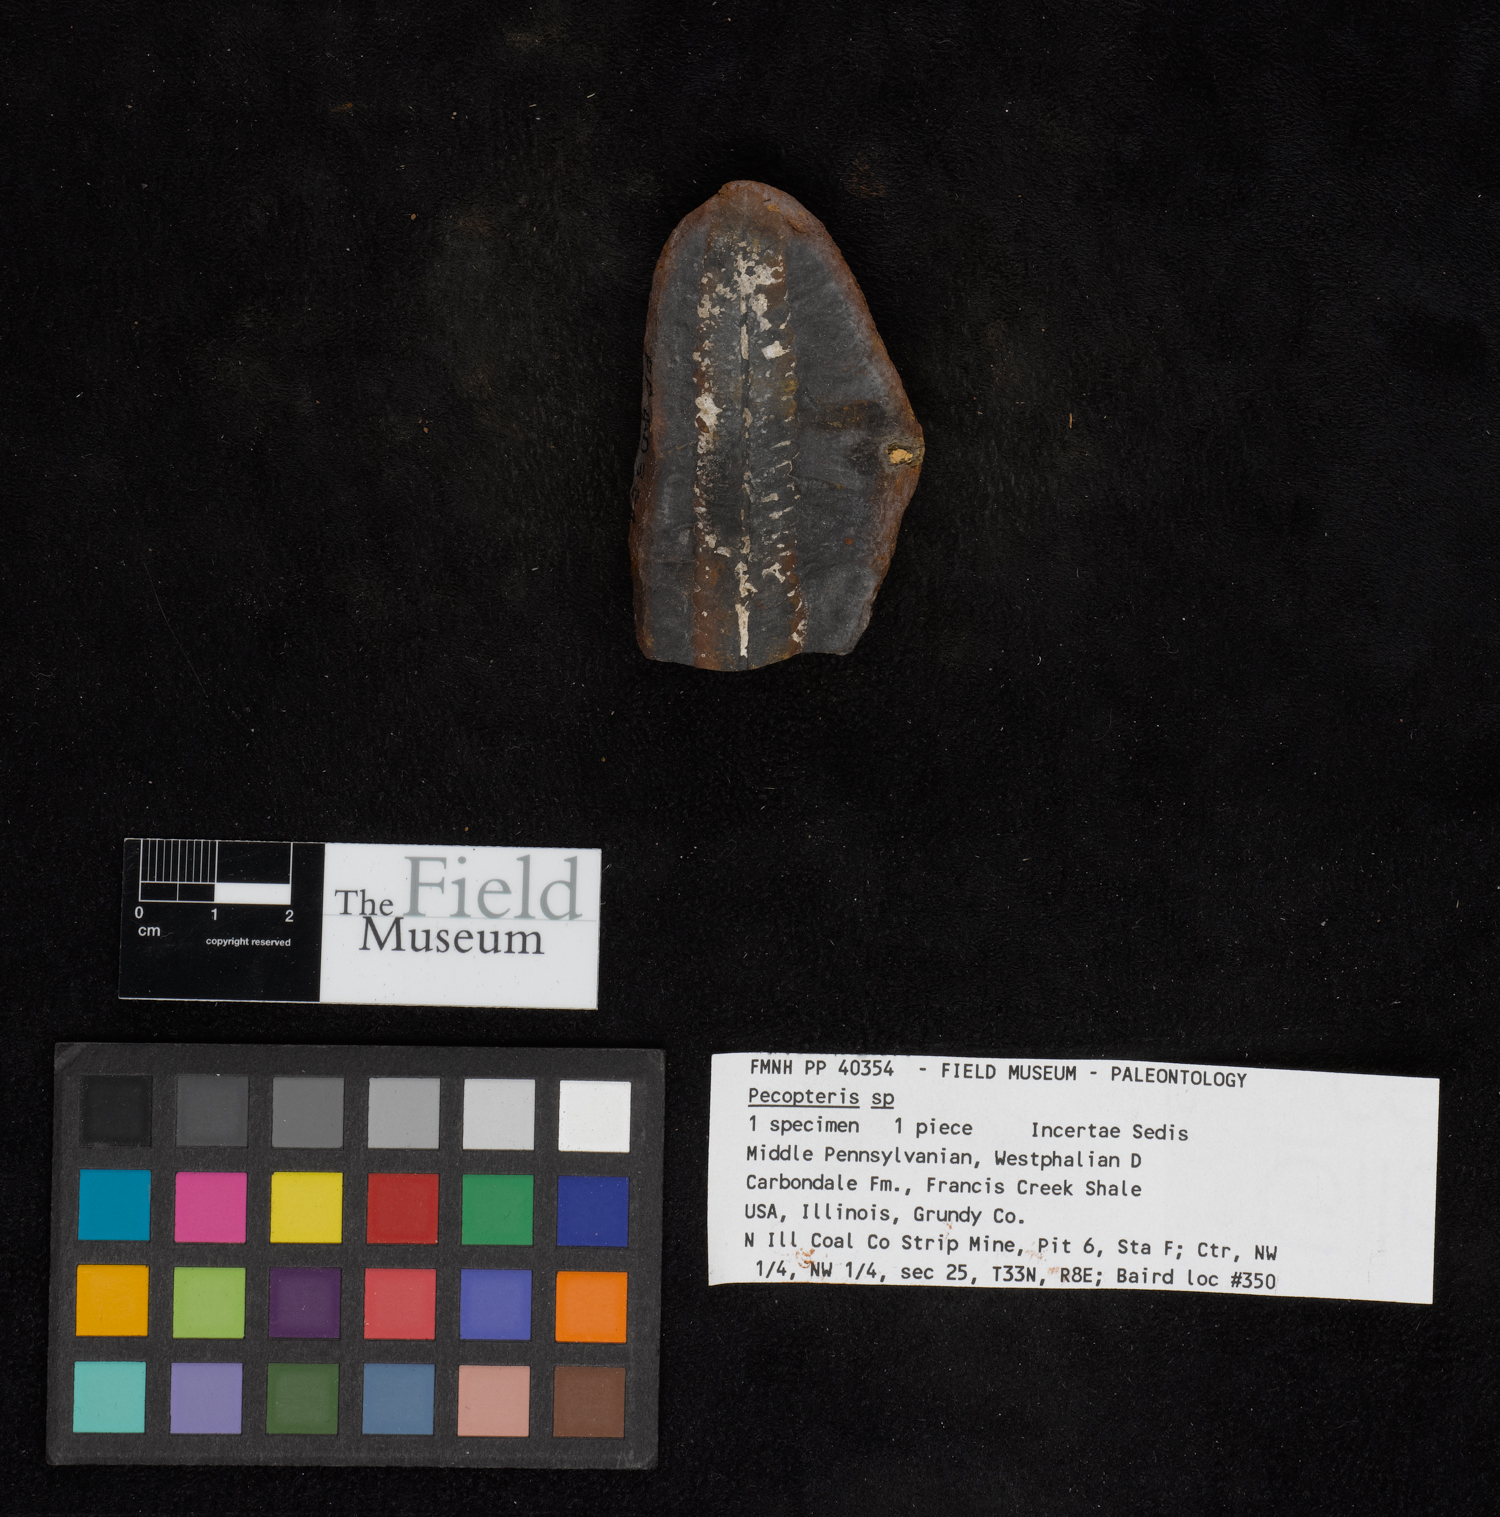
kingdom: Plantae
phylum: Tracheophyta
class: Polypodiopsida
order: Marattiales
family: Asterothecaceae
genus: Pecopteris
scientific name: Pecopteris
